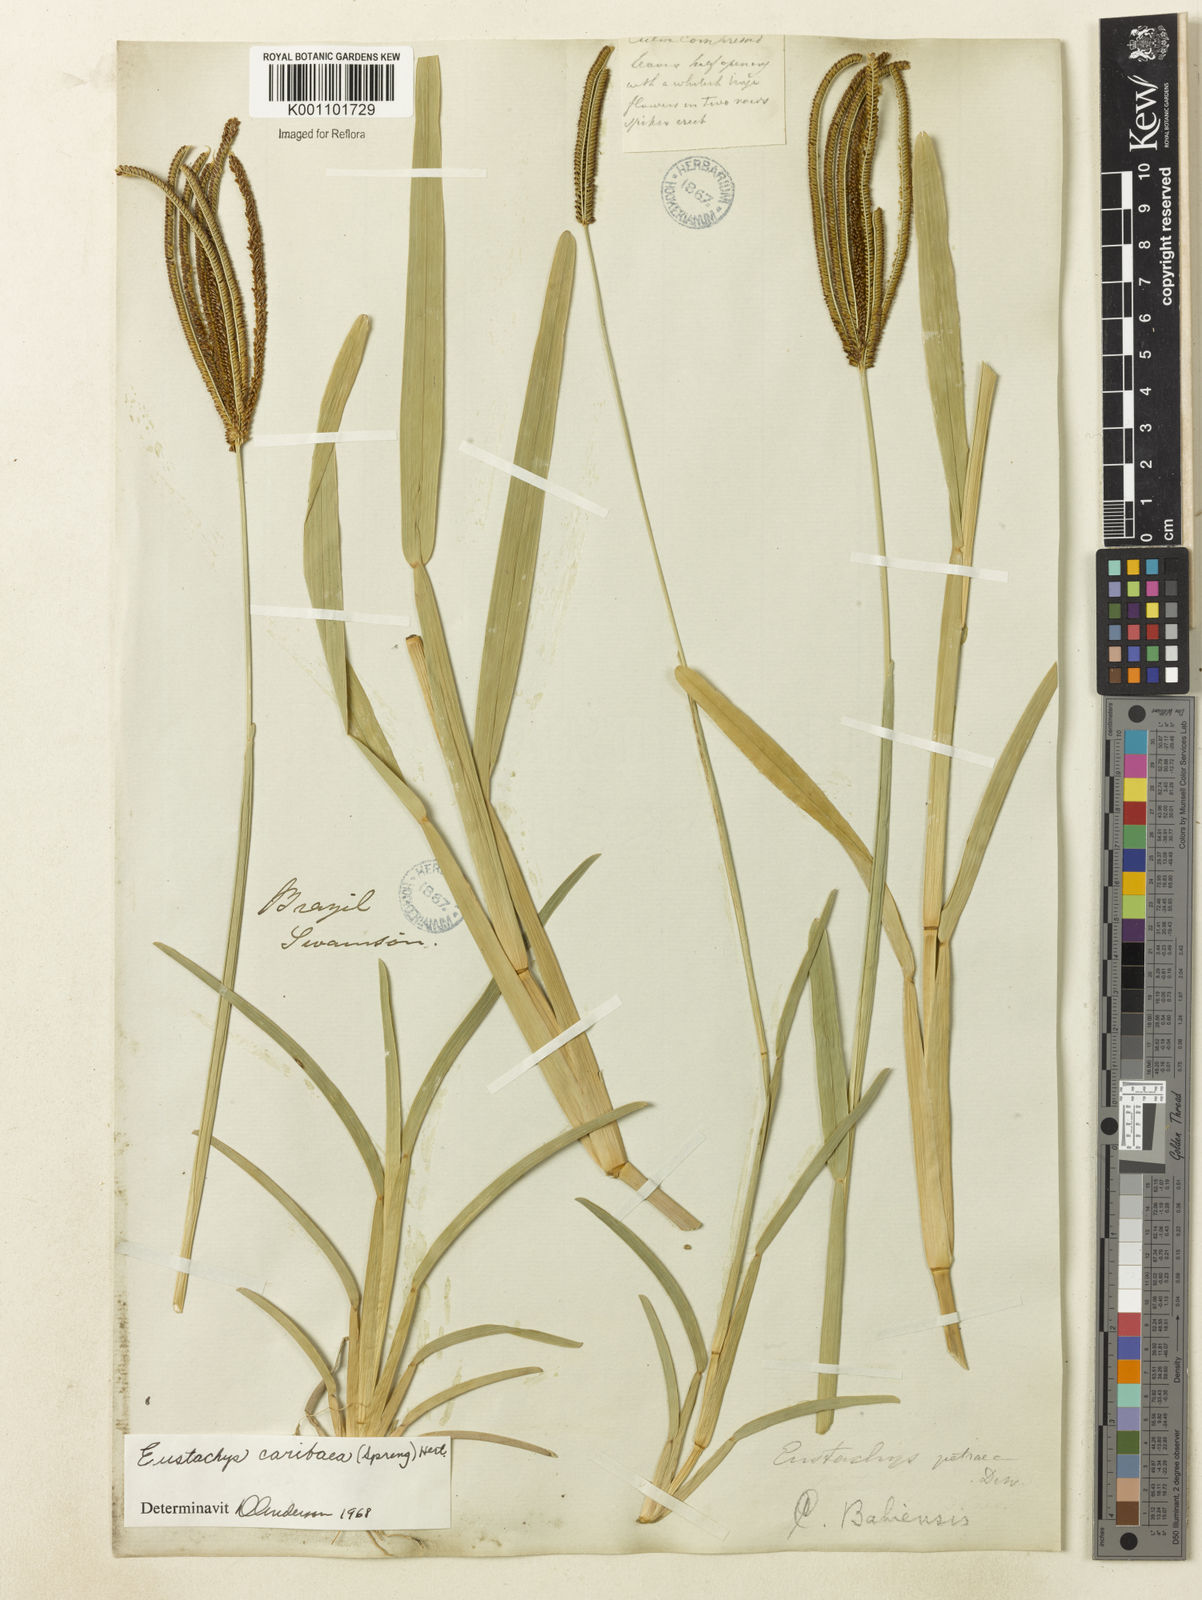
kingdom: Plantae
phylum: Tracheophyta
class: Liliopsida
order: Poales
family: Poaceae
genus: Eustachys
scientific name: Eustachys bahiensis
